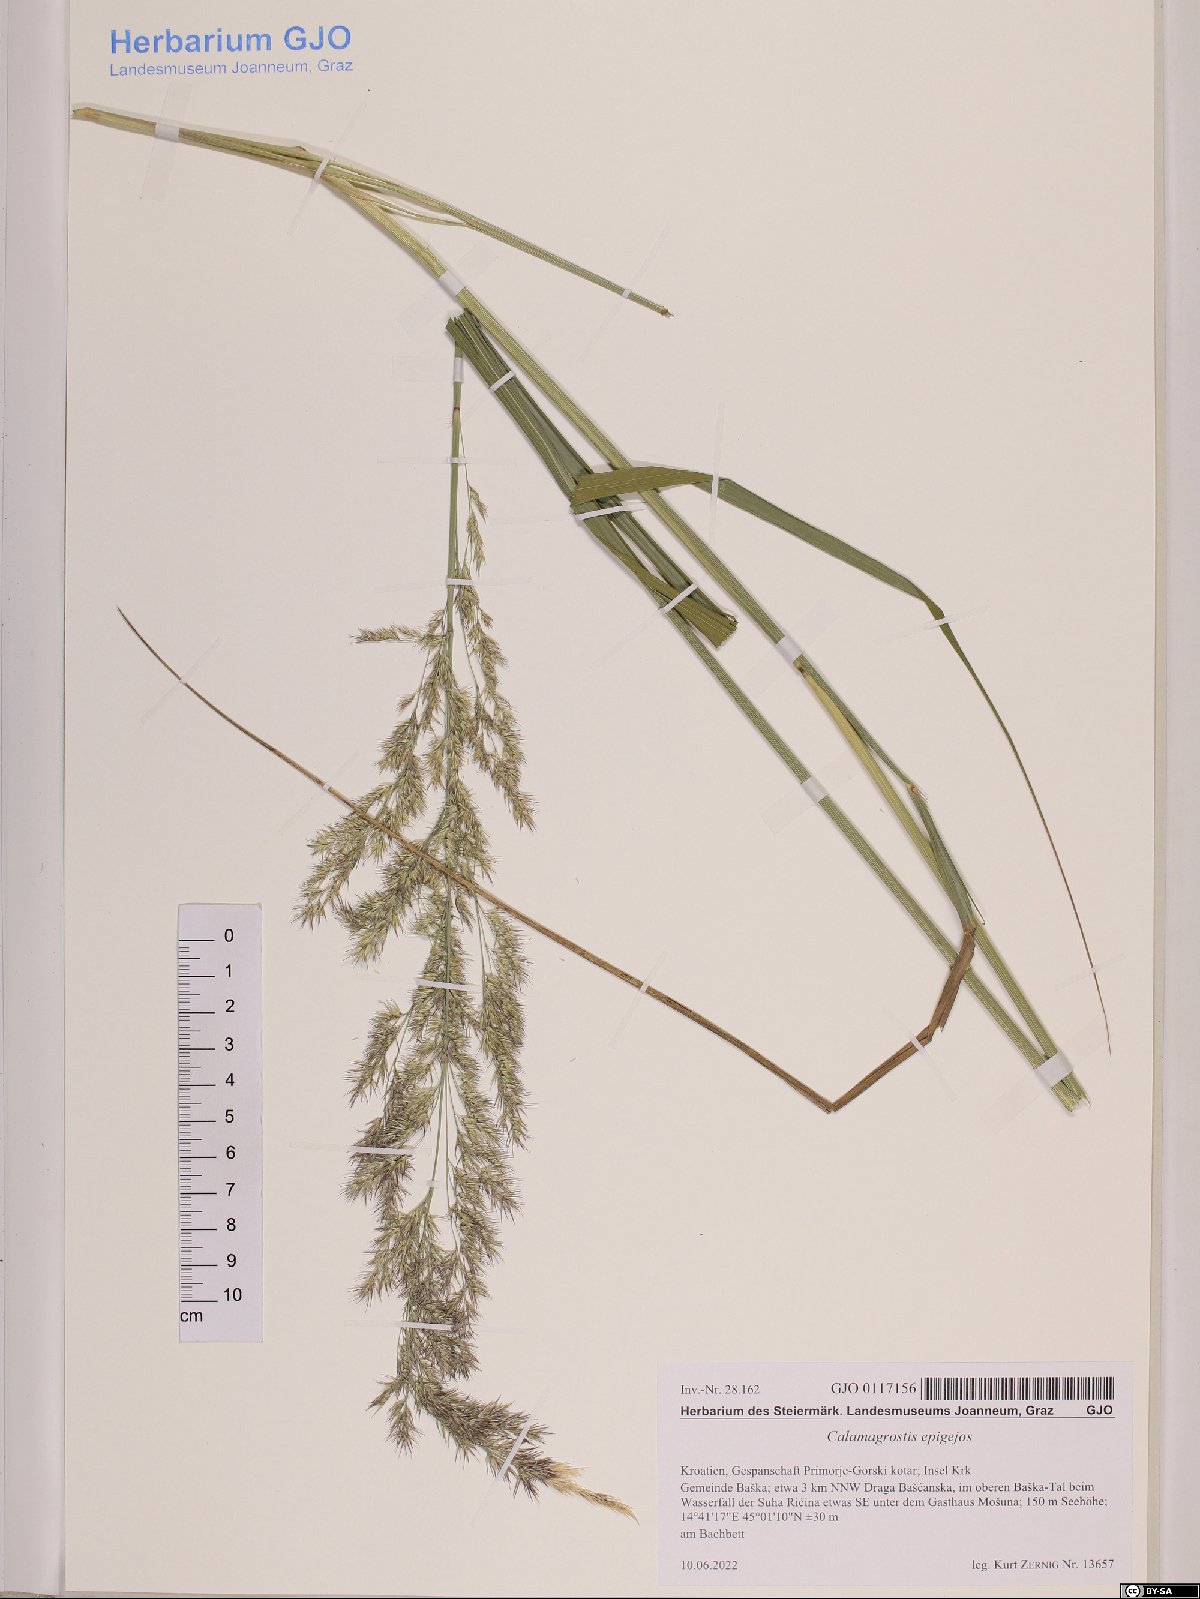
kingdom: Plantae
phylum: Tracheophyta
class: Liliopsida
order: Poales
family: Poaceae
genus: Calamagrostis
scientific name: Calamagrostis epigejos
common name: Wood small-reed
